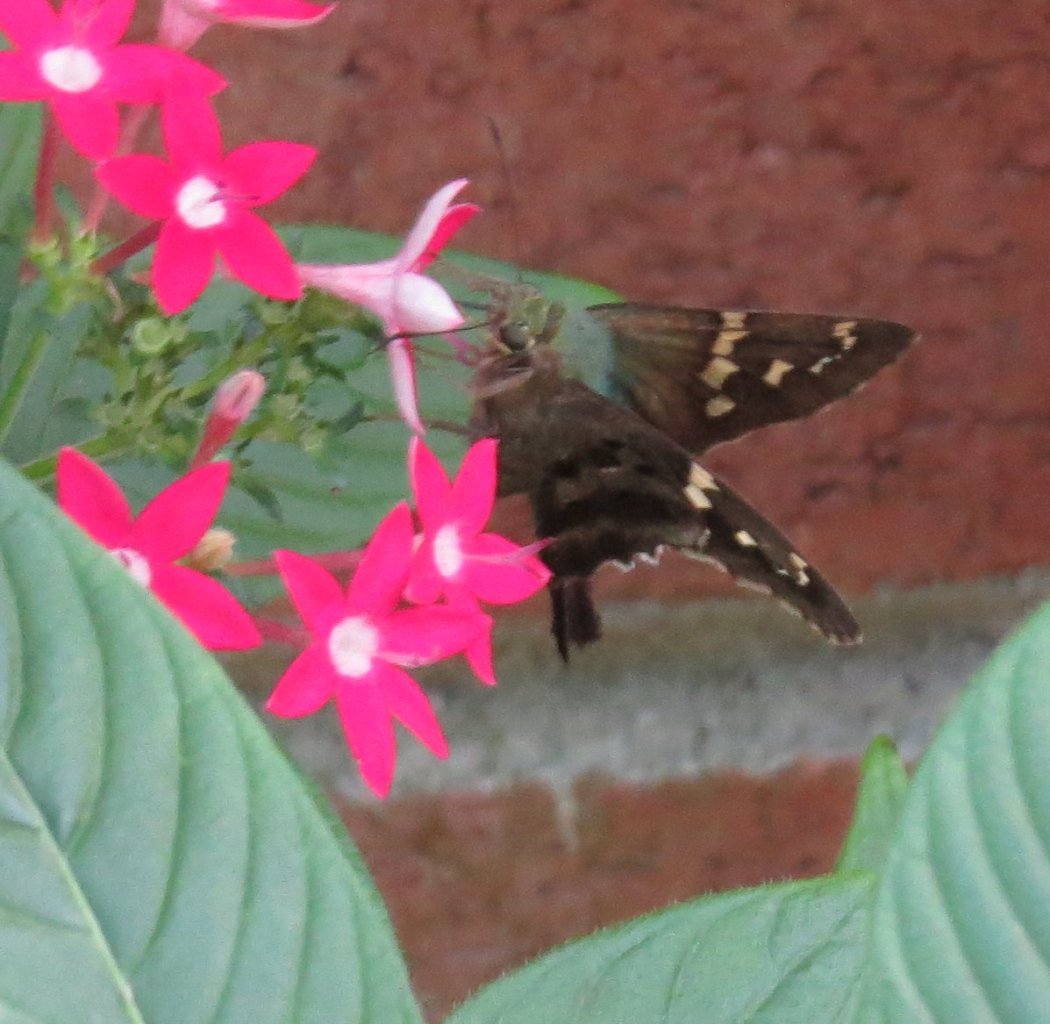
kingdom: Animalia
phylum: Arthropoda
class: Insecta
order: Lepidoptera
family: Hesperiidae
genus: Urbanus
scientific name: Urbanus proteus
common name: Long-tailed Skipper
